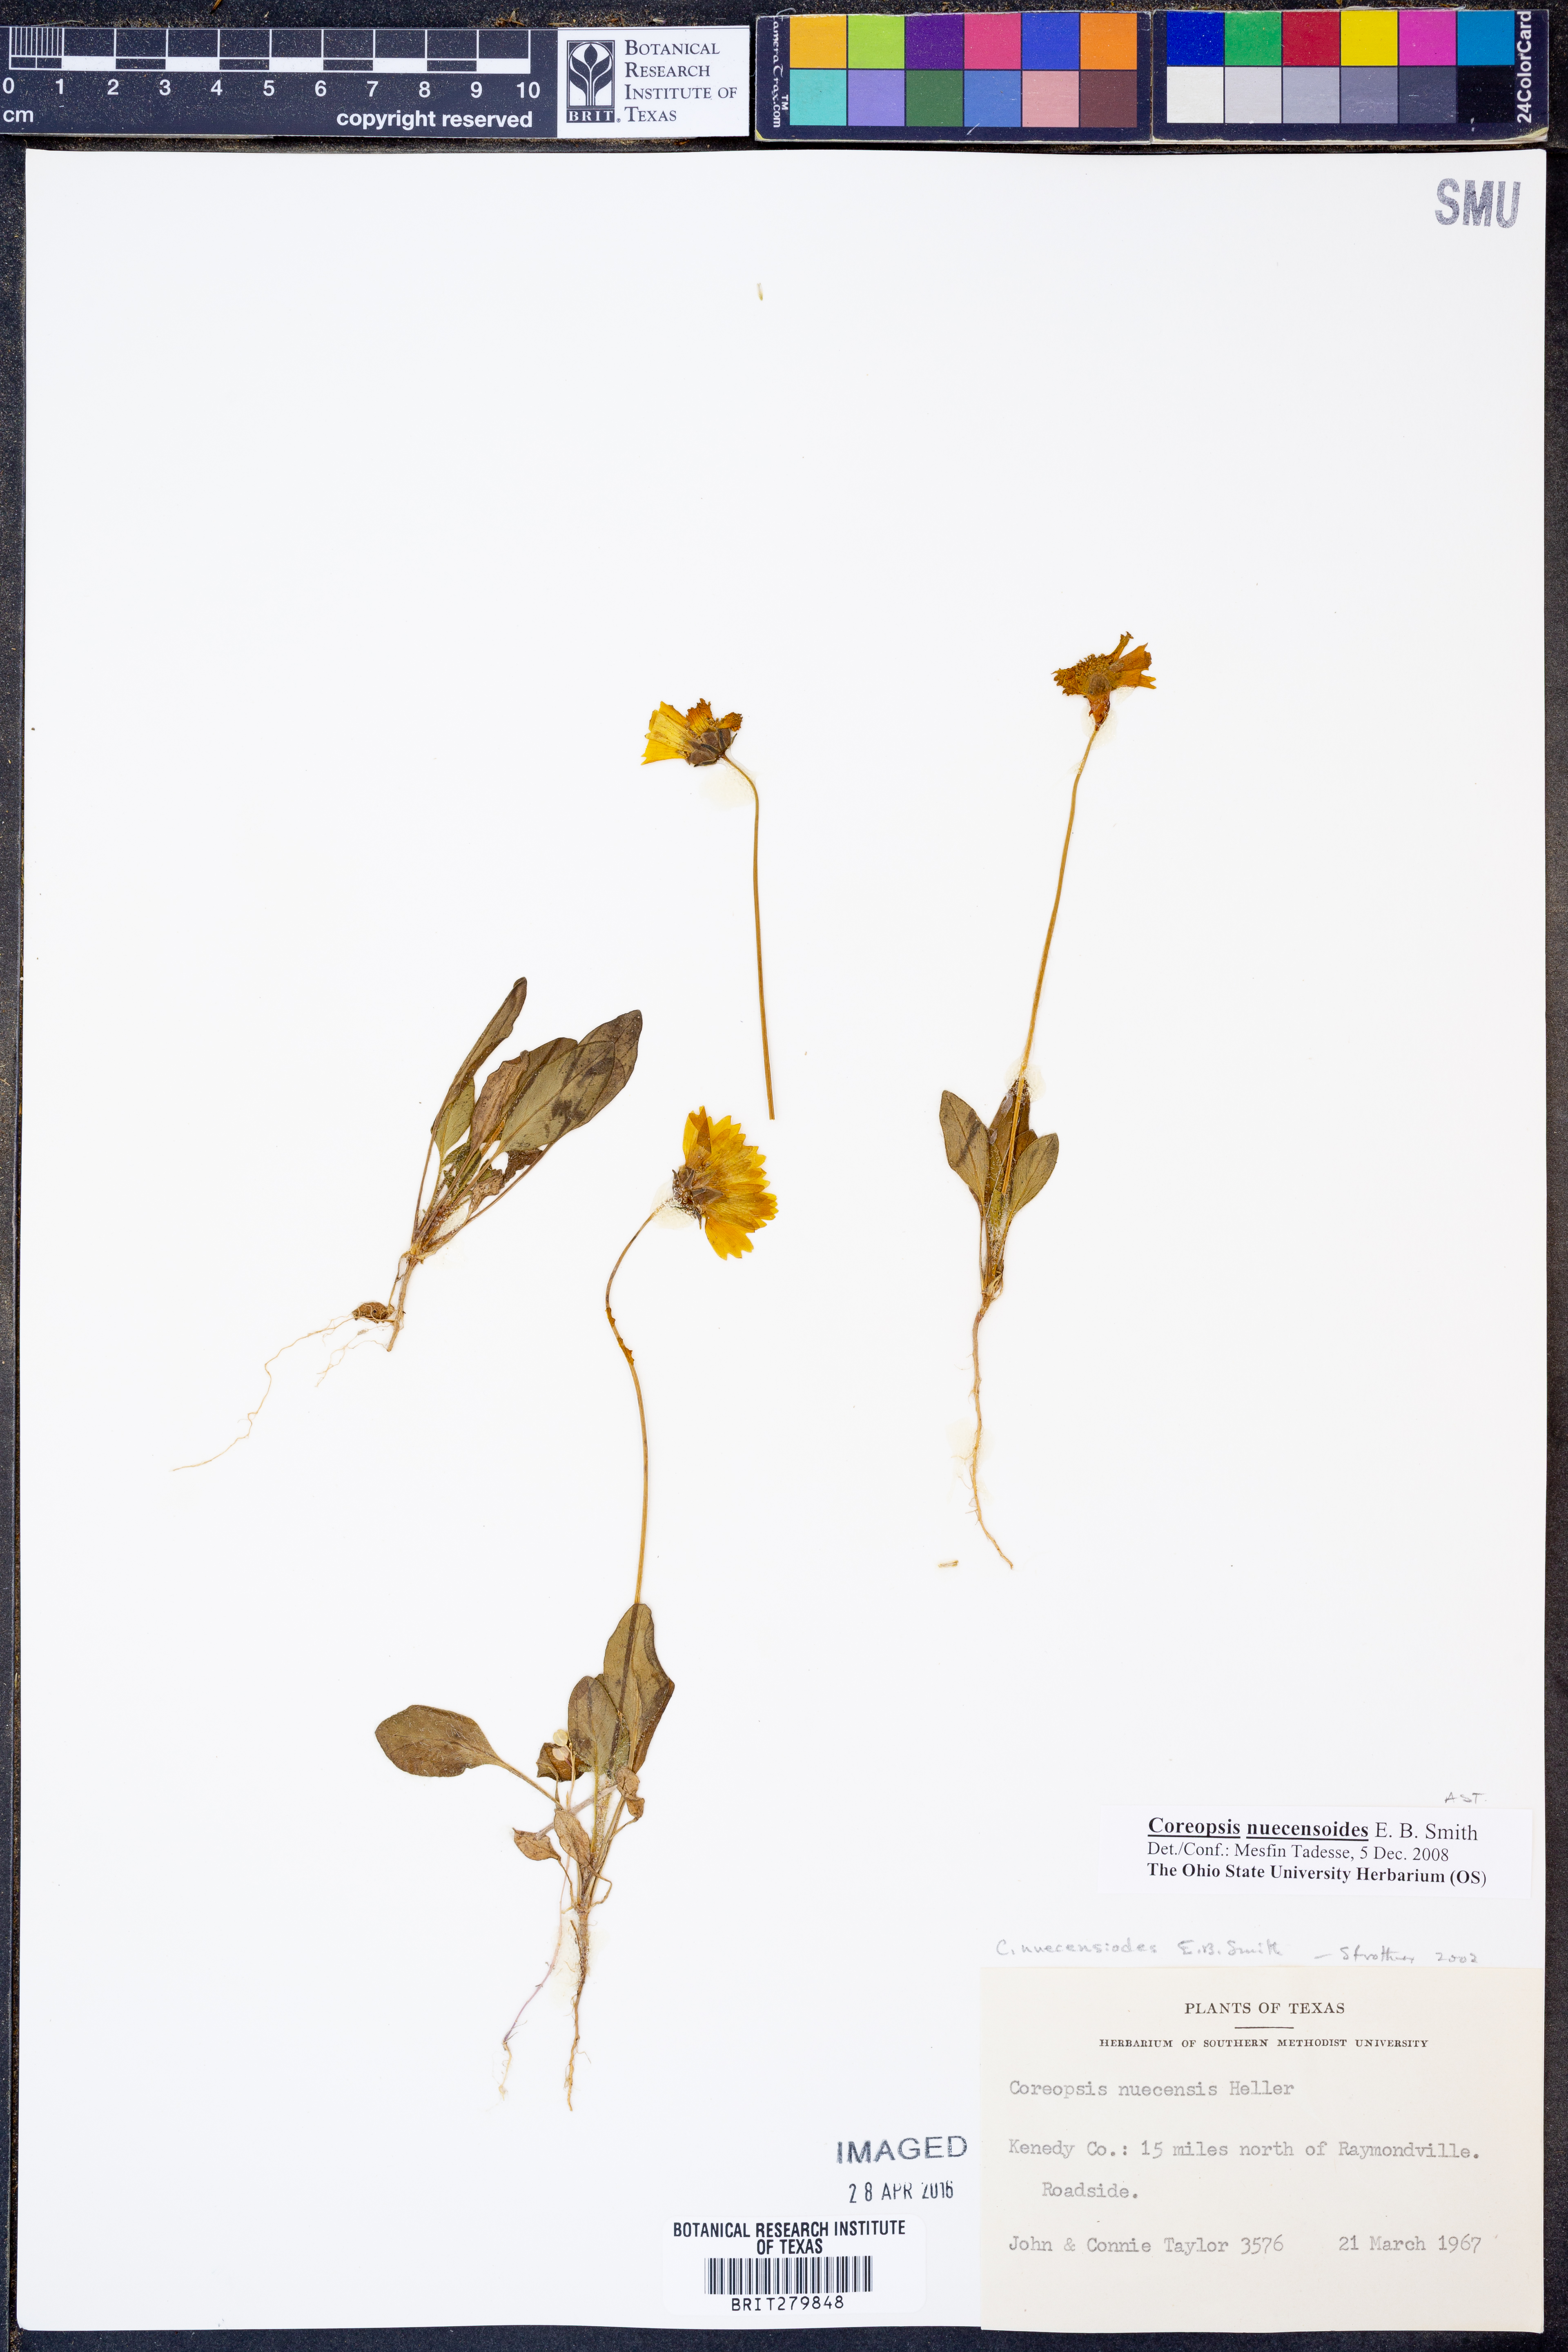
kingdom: Plantae
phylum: Tracheophyta
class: Magnoliopsida
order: Asterales
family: Asteraceae
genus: Coreopsis
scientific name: Coreopsis nuecensis
